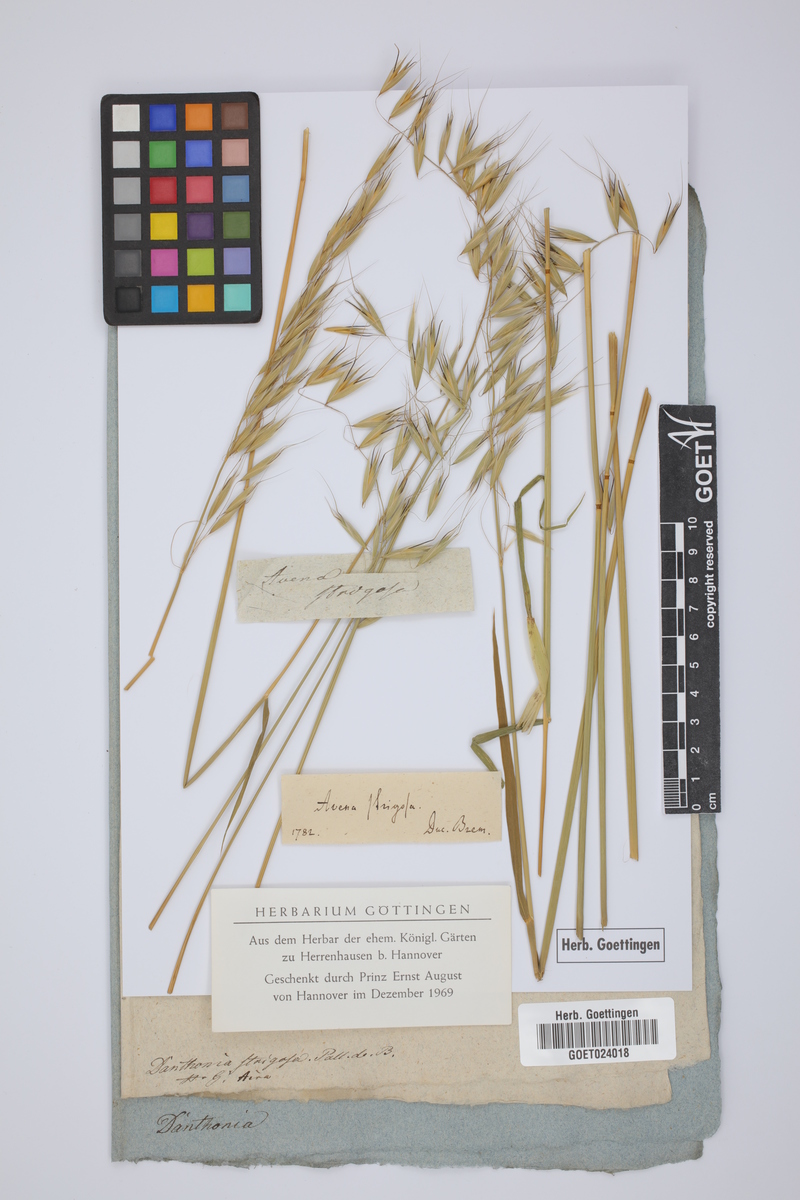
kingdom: Plantae
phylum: Tracheophyta
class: Liliopsida
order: Poales
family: Poaceae
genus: Avena
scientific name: Avena strigosa
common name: Bristle oat
